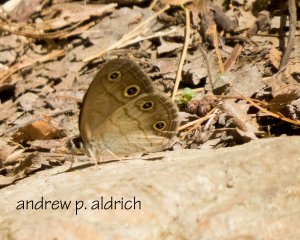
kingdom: Animalia
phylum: Arthropoda
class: Insecta
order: Lepidoptera
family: Nymphalidae
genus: Euptychia
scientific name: Euptychia cymela
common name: Little Wood Satyr
